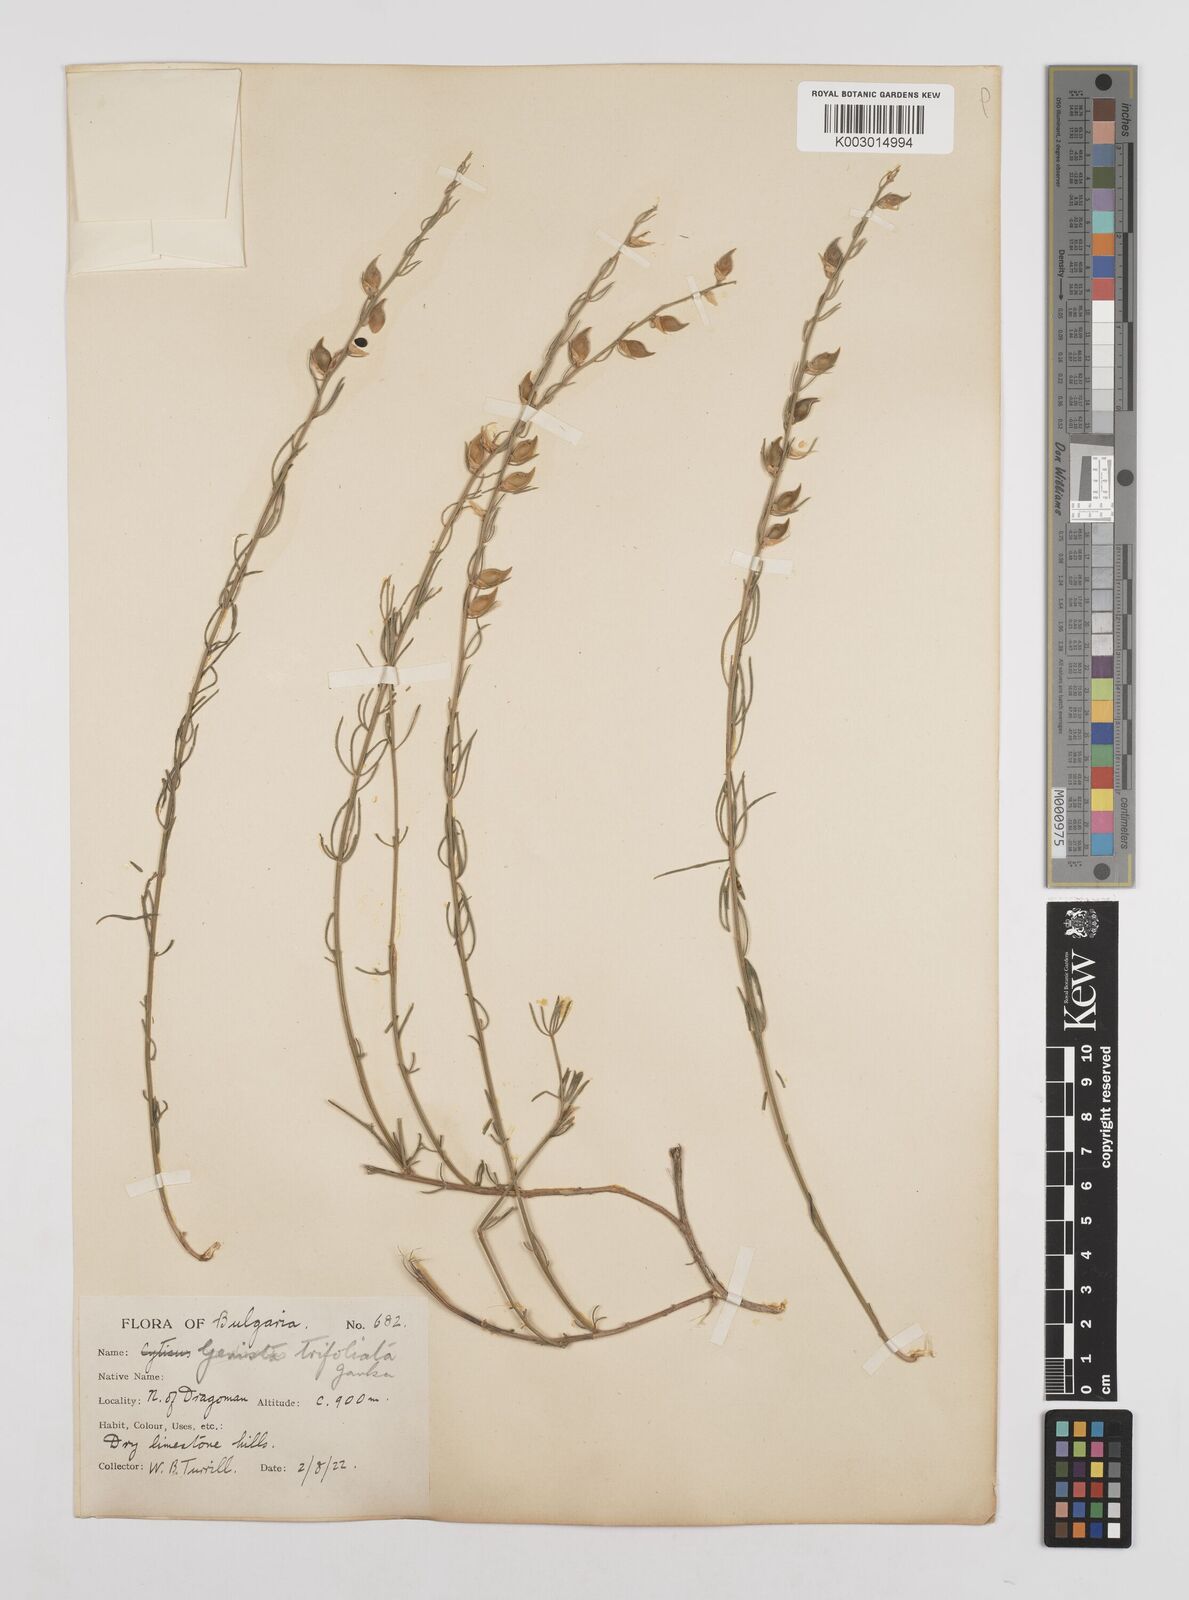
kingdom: Plantae
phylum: Tracheophyta
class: Magnoliopsida
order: Fabales
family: Fabaceae
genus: Genista
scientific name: Genista sessilifolia
